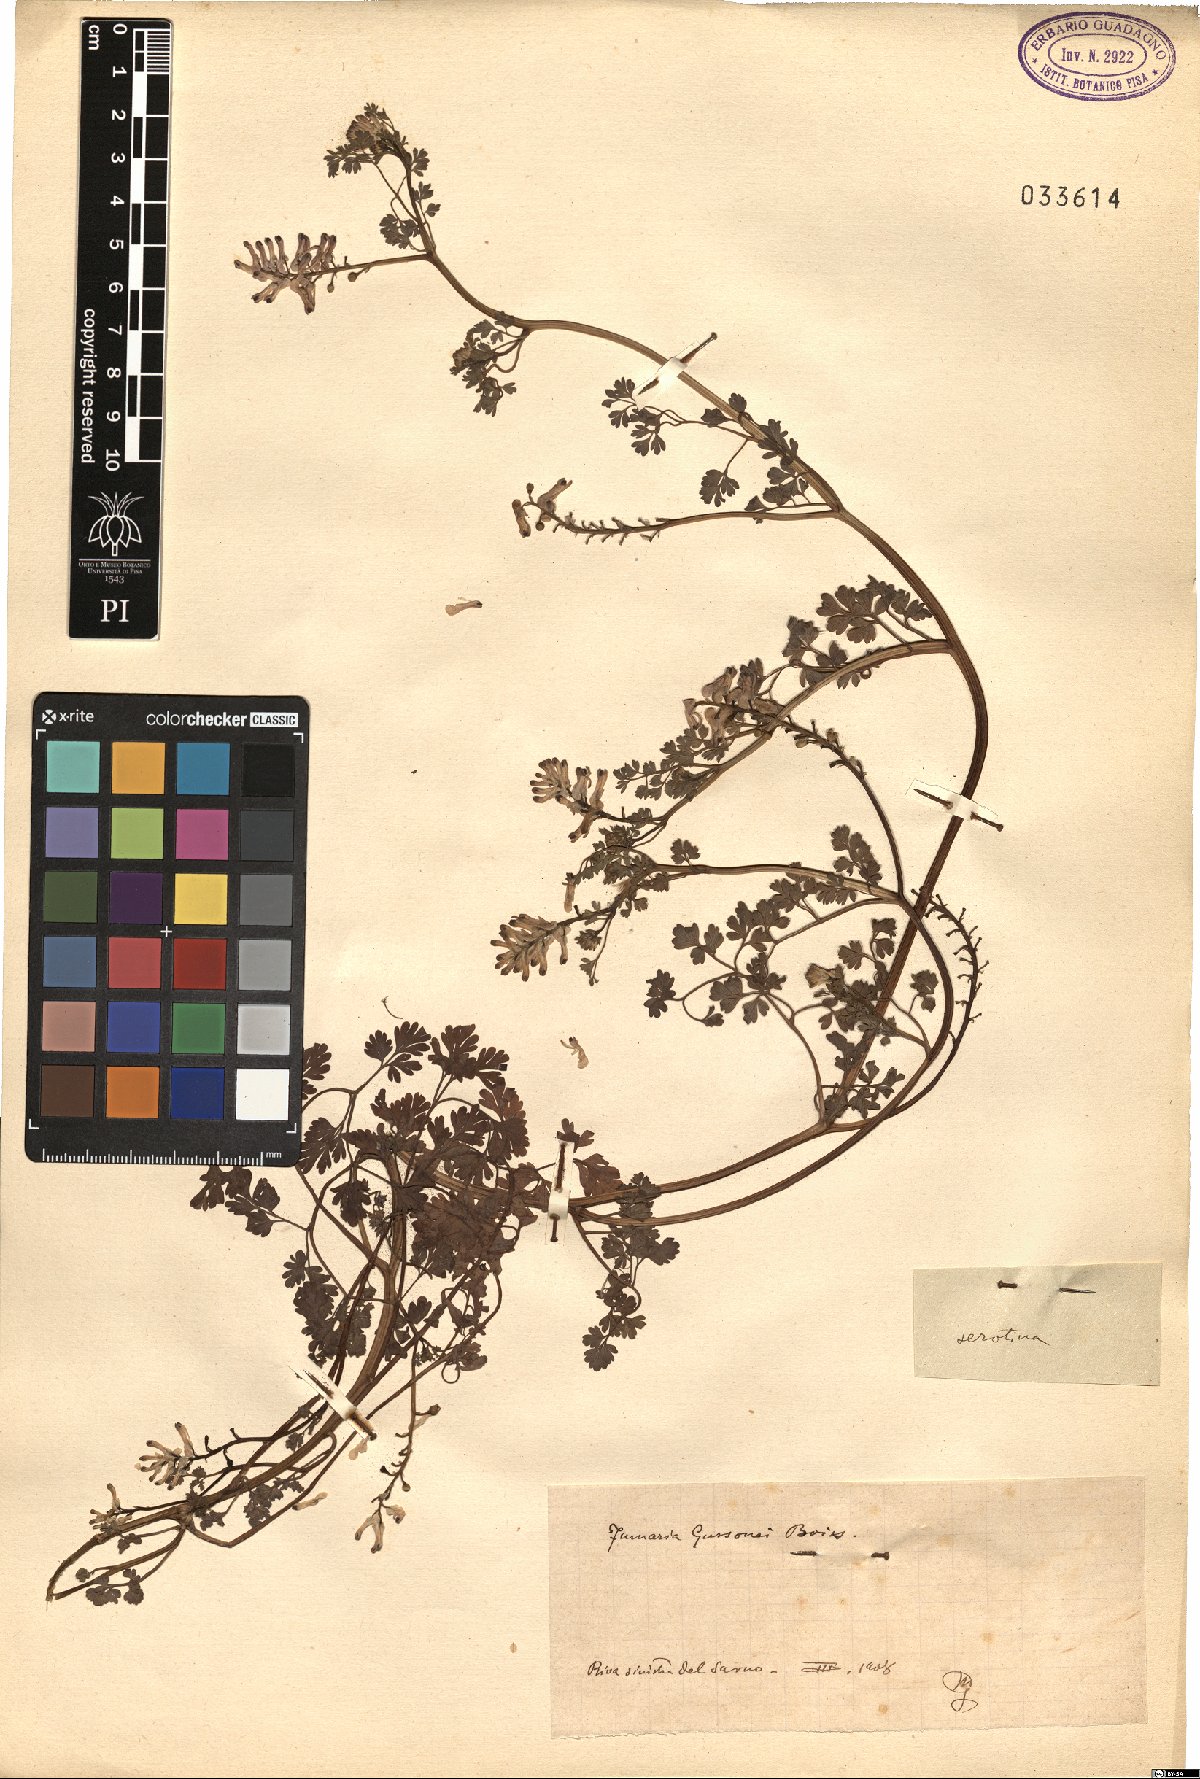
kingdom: Plantae
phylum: Tracheophyta
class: Magnoliopsida
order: Ranunculales
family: Papaveraceae
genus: Fumaria
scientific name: Fumaria bastardii
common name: Tall ramping-fumitory
